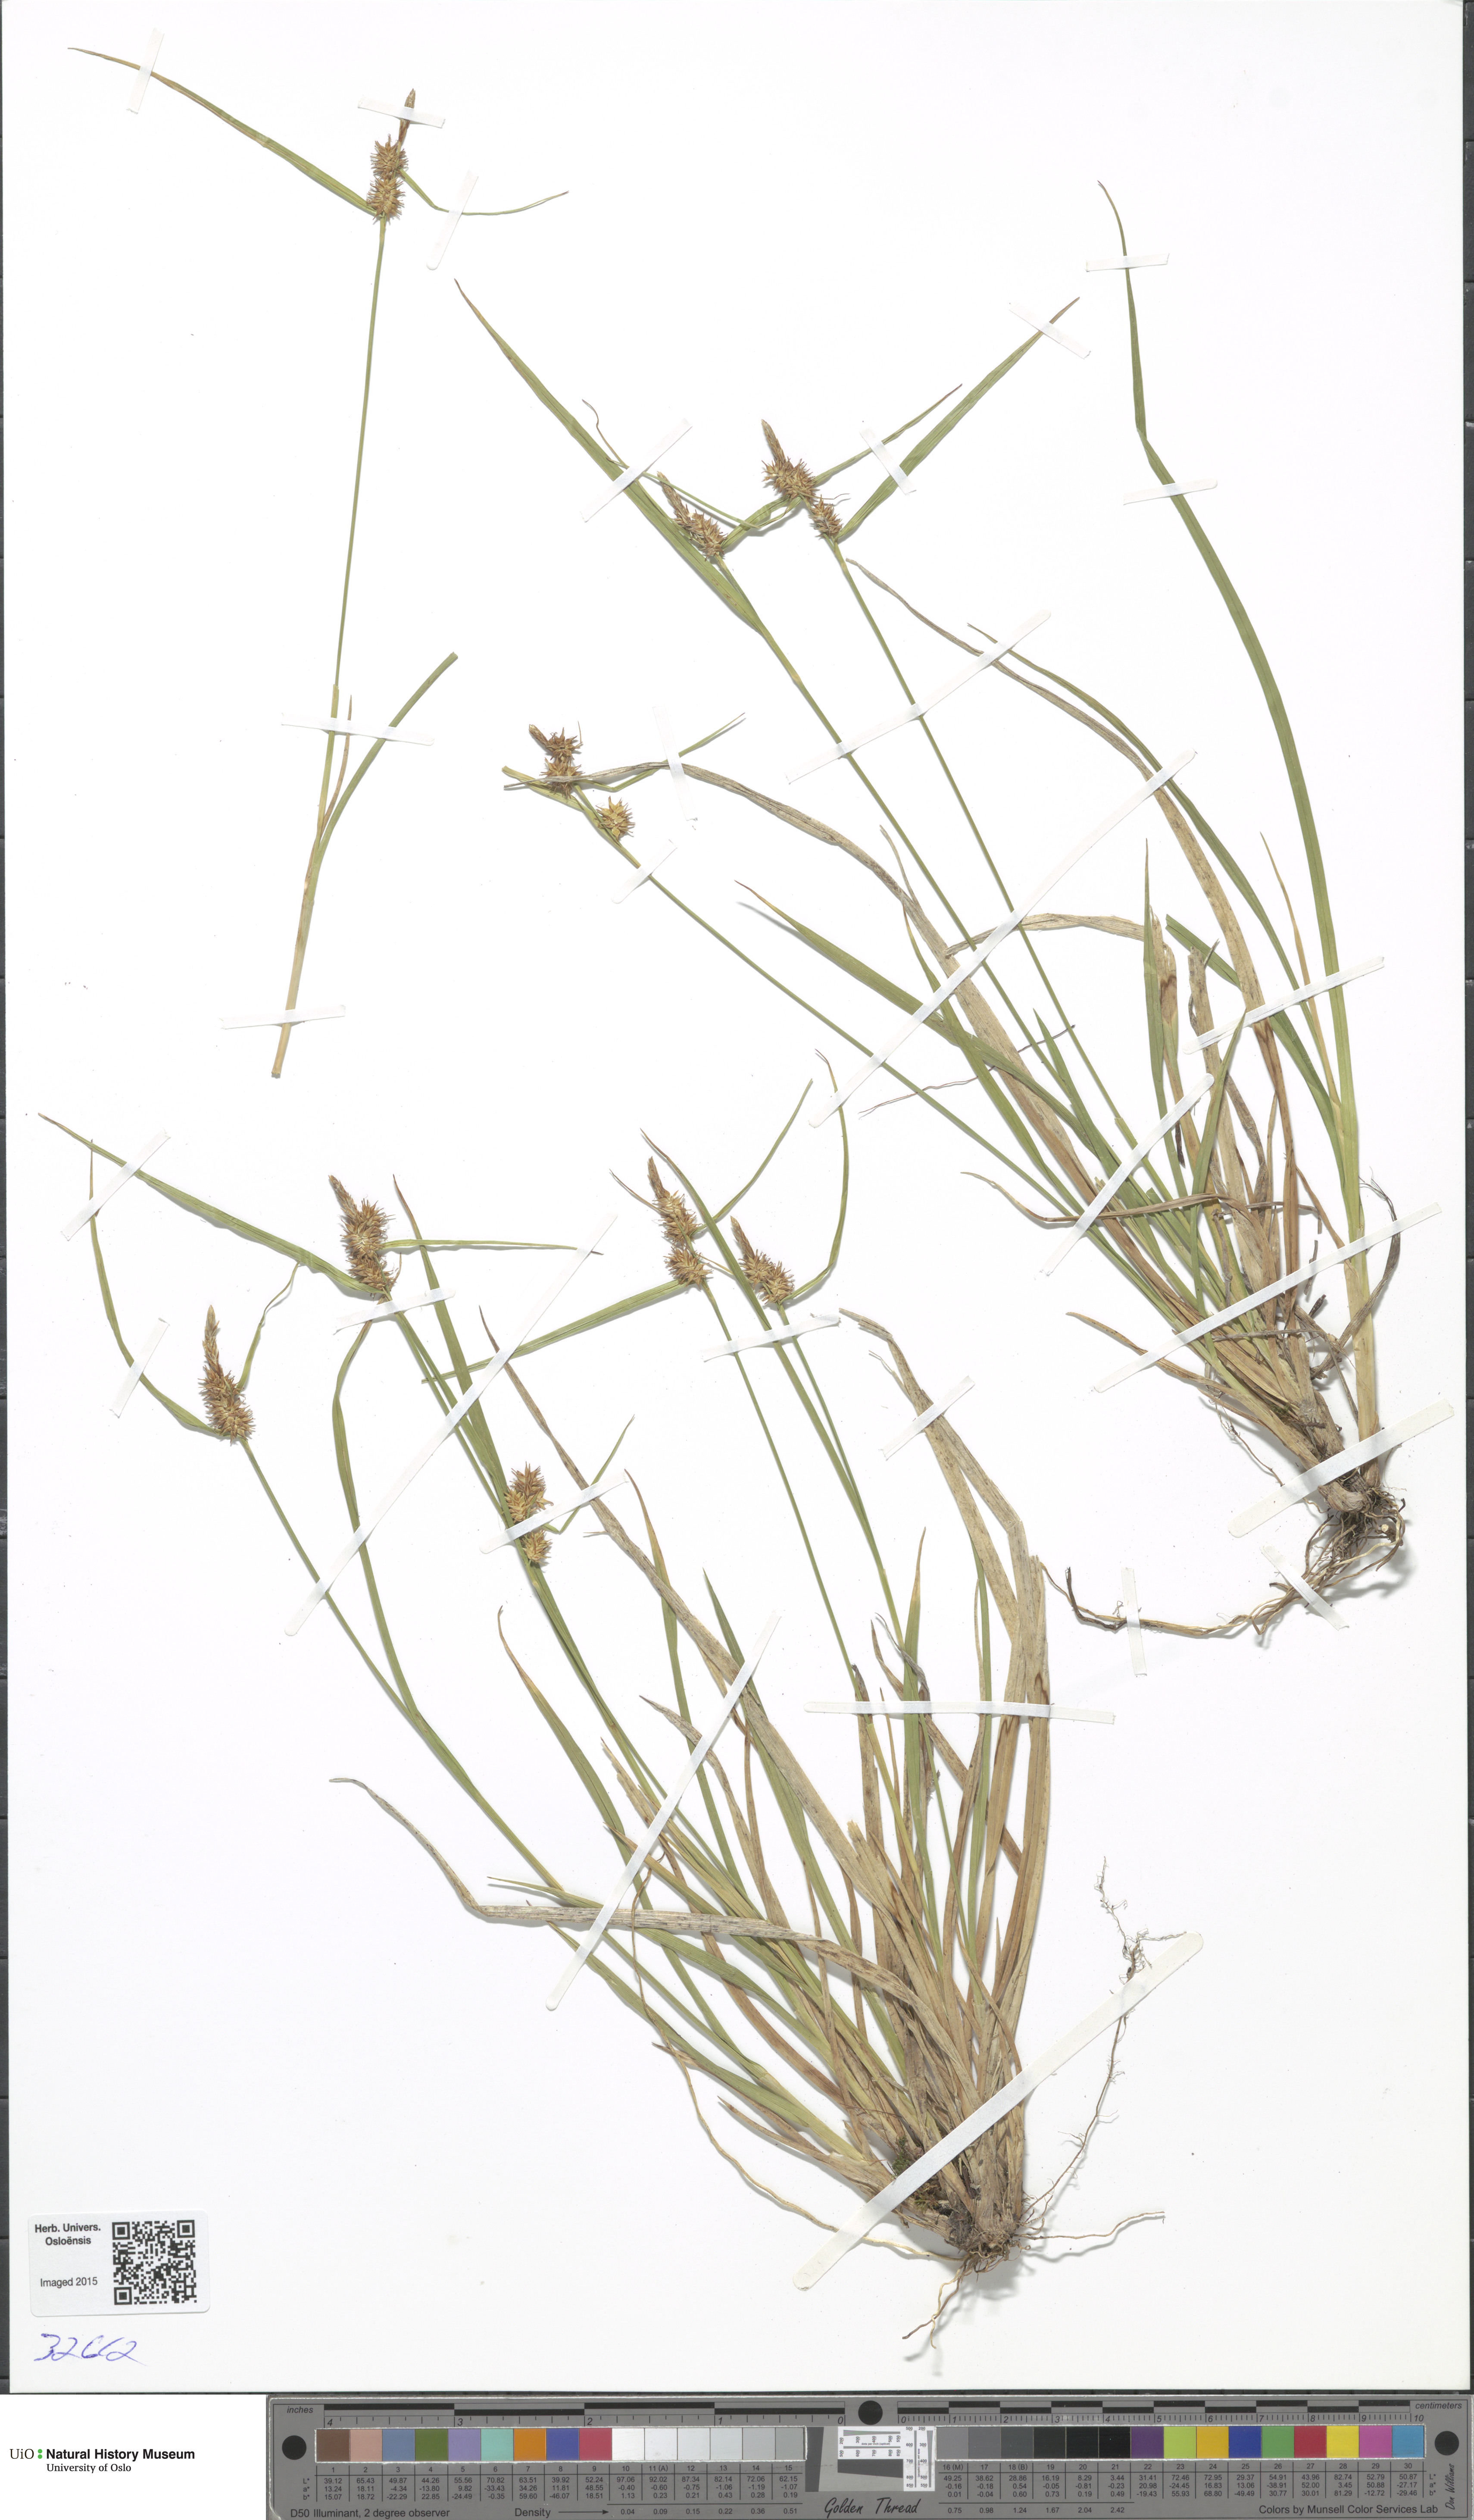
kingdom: Plantae
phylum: Tracheophyta
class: Liliopsida
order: Poales
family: Cyperaceae
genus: Carex
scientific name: Carex
